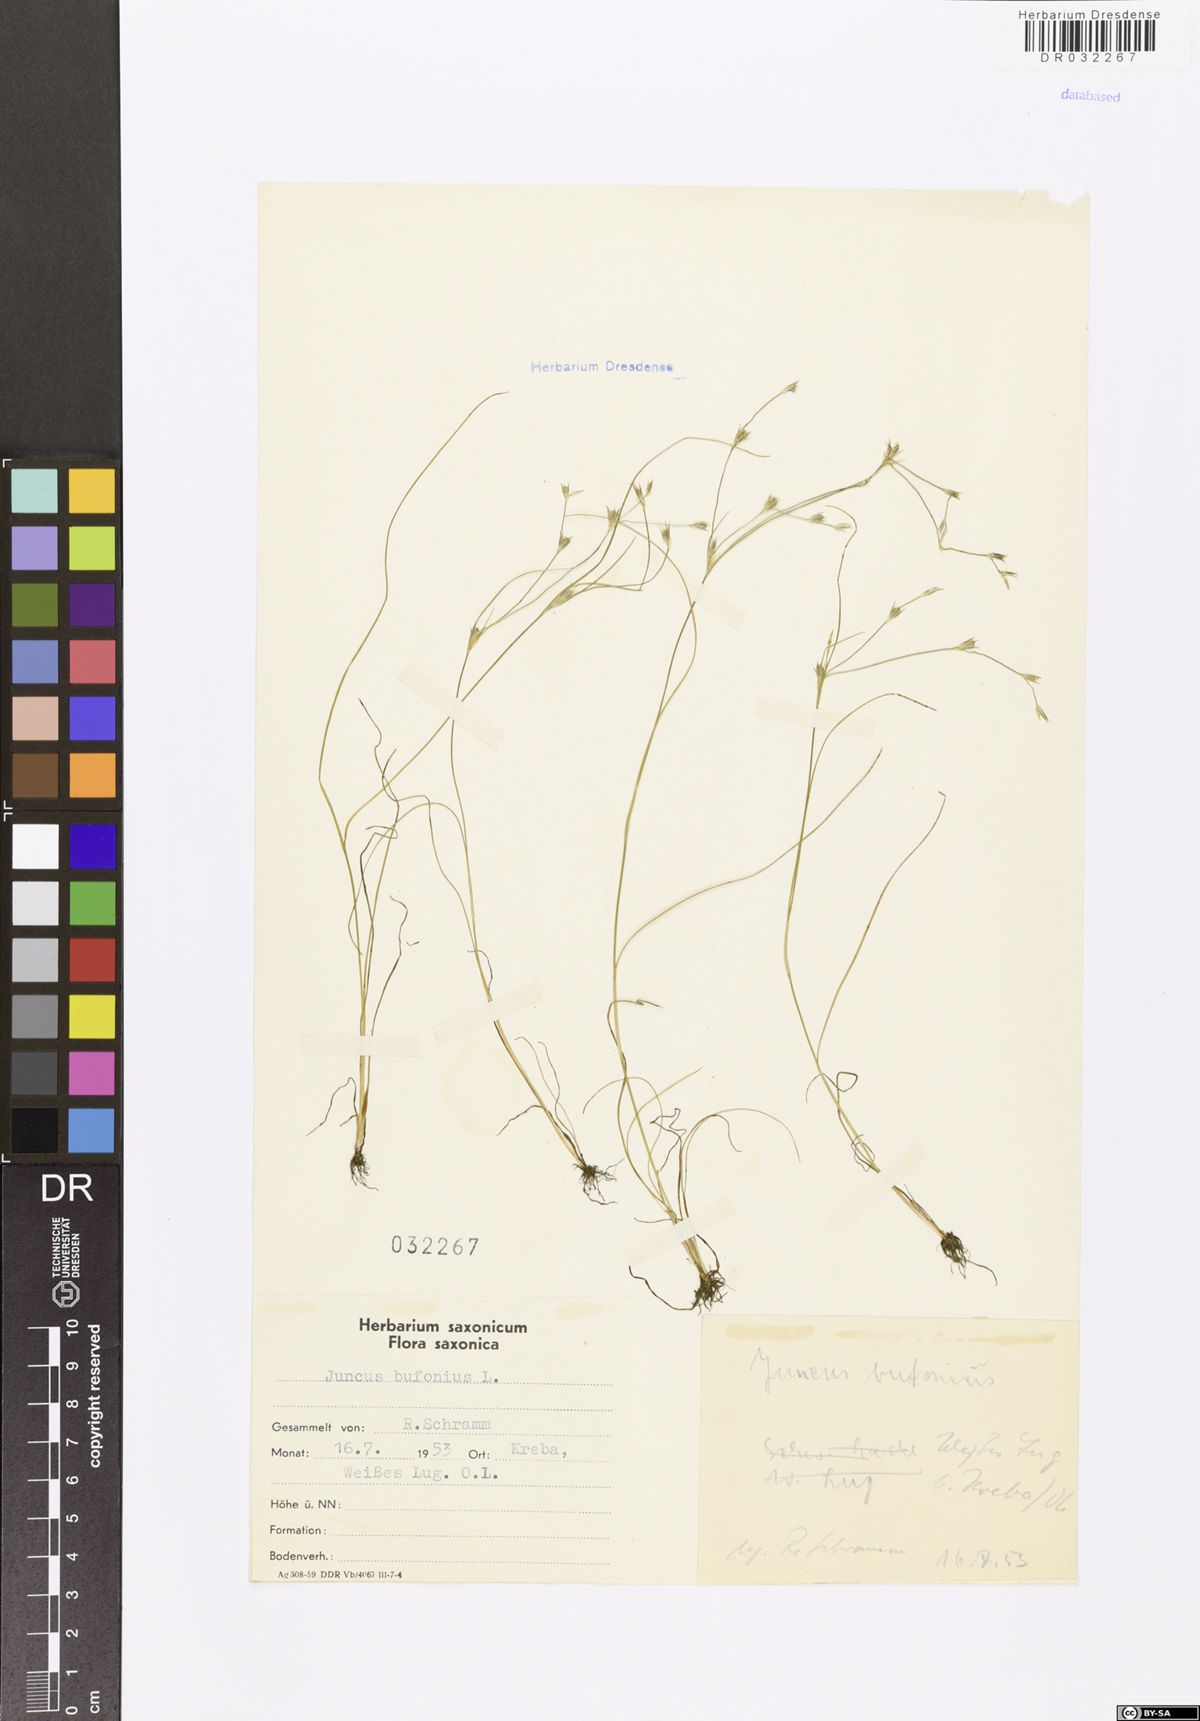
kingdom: Plantae
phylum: Tracheophyta
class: Liliopsida
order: Poales
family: Juncaceae
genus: Juncus
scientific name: Juncus bufonius
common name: Toad rush
